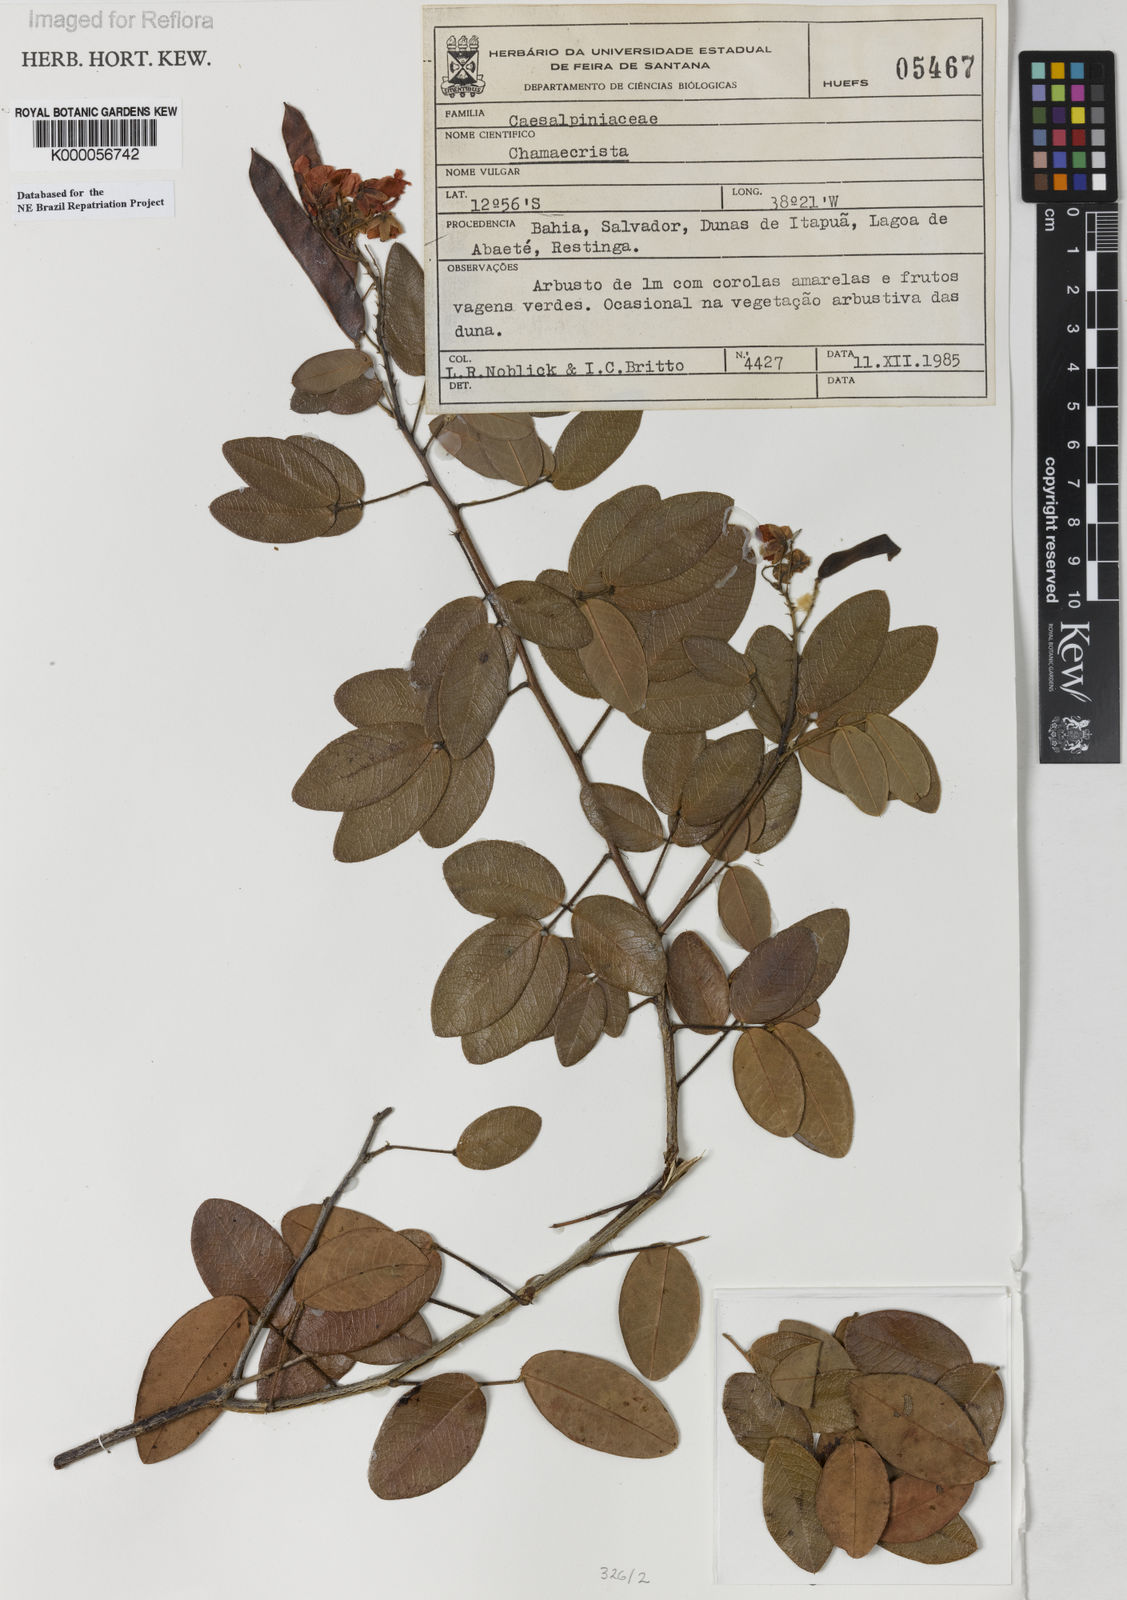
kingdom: Plantae
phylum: Tracheophyta
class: Magnoliopsida
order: Fabales
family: Fabaceae
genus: Chamaecrista
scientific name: Chamaecrista acosmifolia
